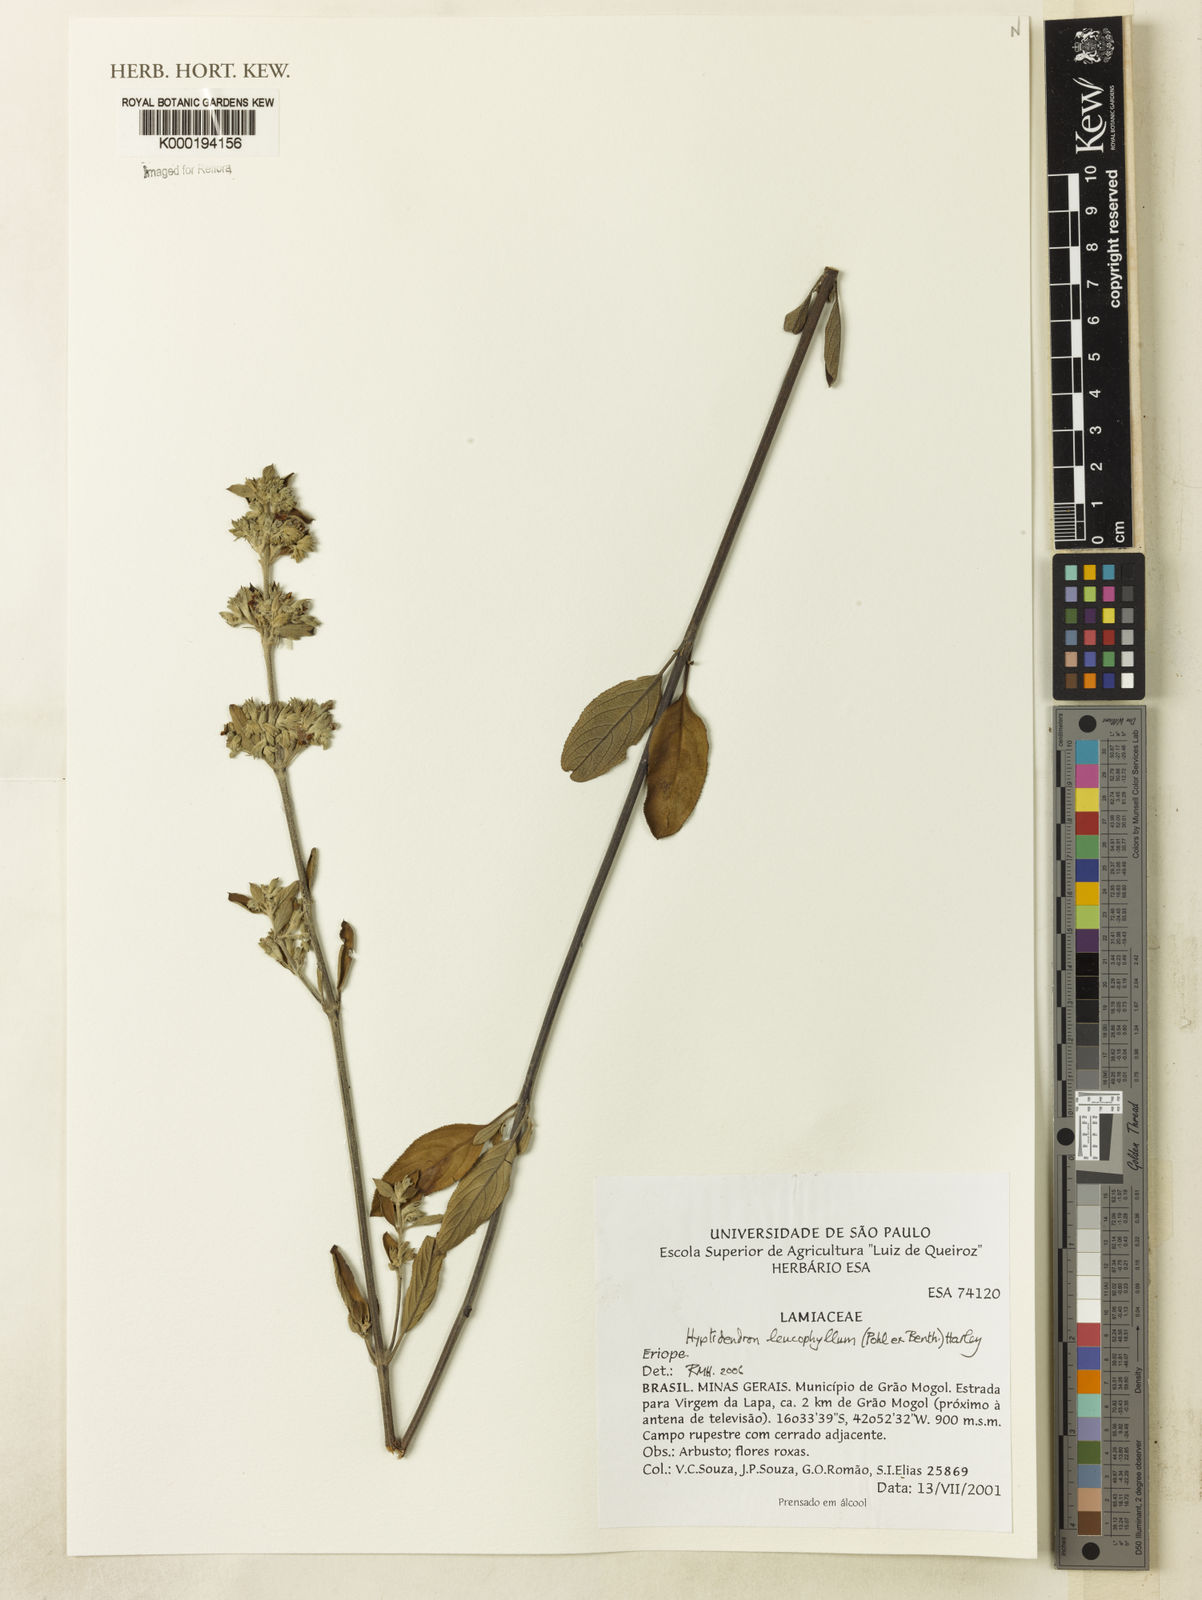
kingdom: Plantae
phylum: Tracheophyta
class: Magnoliopsida
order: Lamiales
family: Lamiaceae
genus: Hyptidendron
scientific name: Hyptidendron leucophyllum
